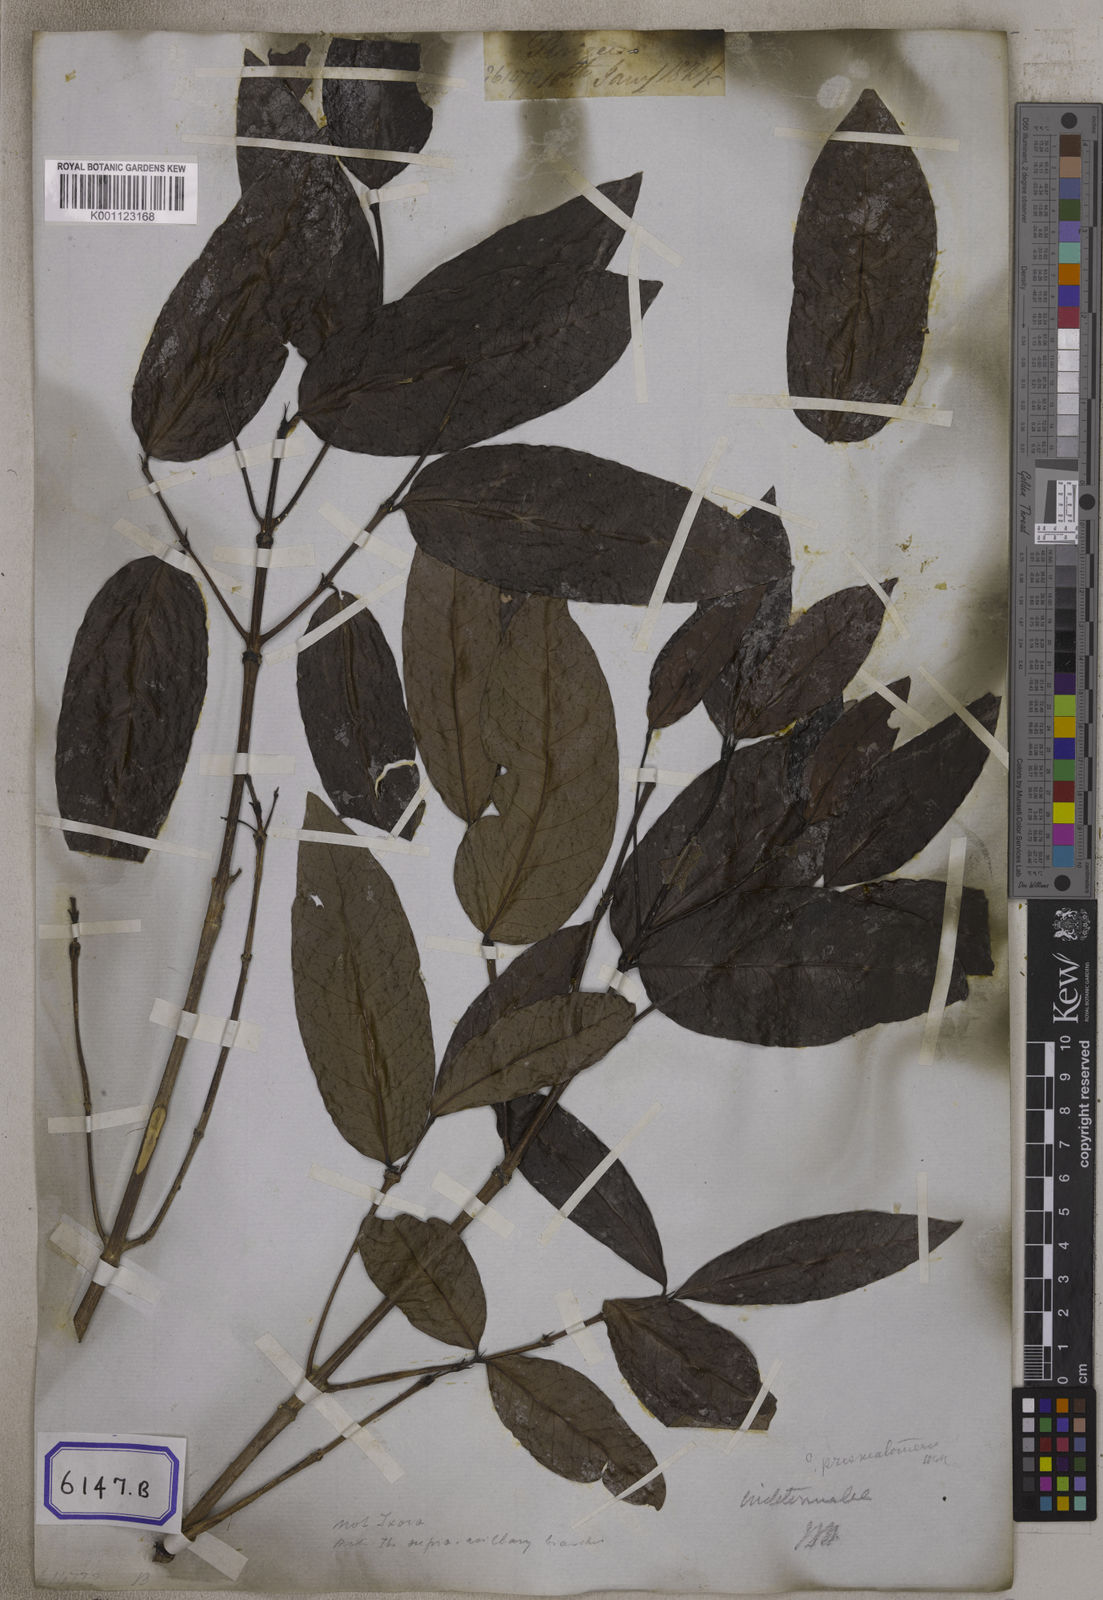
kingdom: Plantae
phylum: Tracheophyta
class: Magnoliopsida
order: Gentianales
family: Rubiaceae
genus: Ixora
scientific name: Ixora
